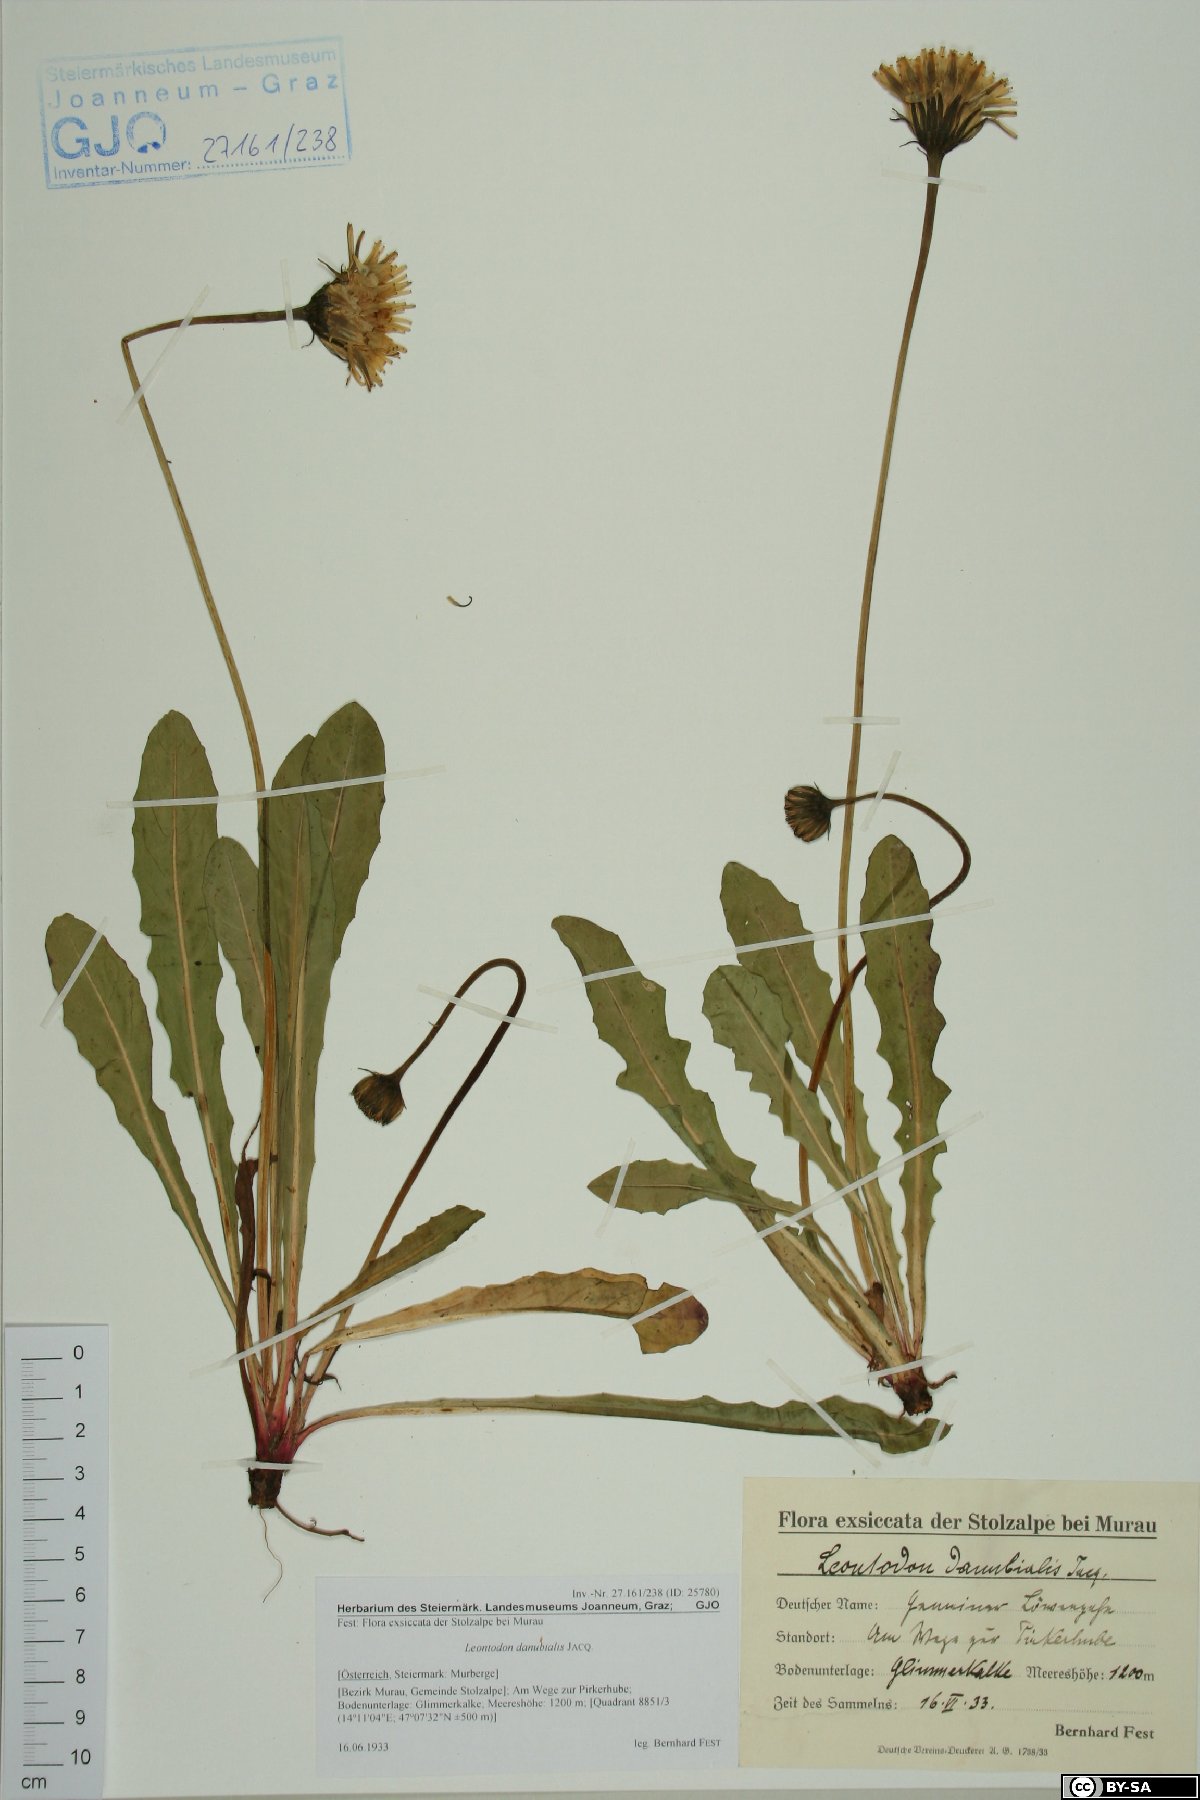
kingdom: Plantae
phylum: Tracheophyta
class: Magnoliopsida
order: Asterales
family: Asteraceae
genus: Leontodon
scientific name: Leontodon hispidus
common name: Rough hawkbit
